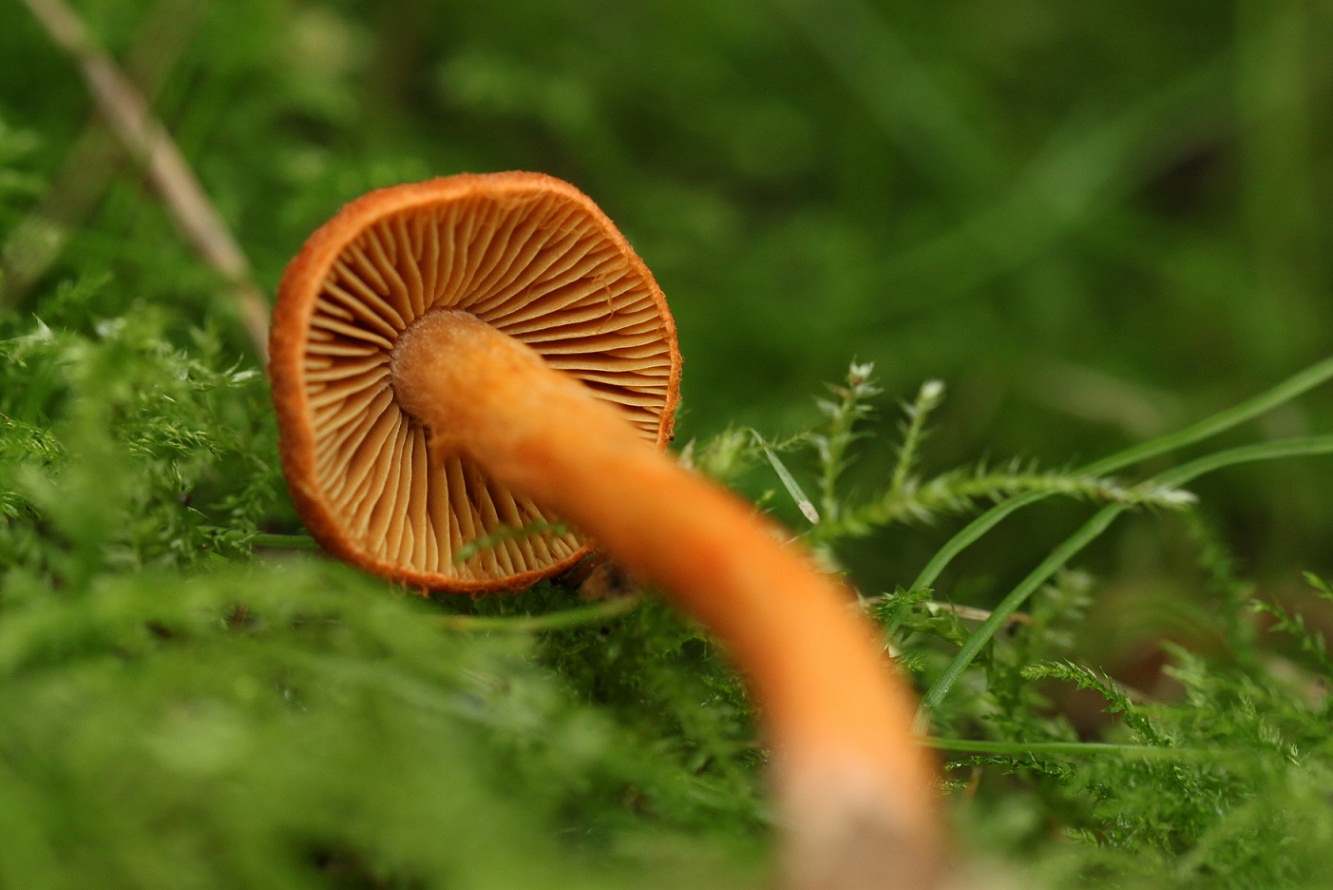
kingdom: Fungi
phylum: Basidiomycota
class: Agaricomycetes
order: Agaricales
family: Cortinariaceae
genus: Cortinarius
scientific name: Cortinarius uliginosus
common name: mose-slørhat
